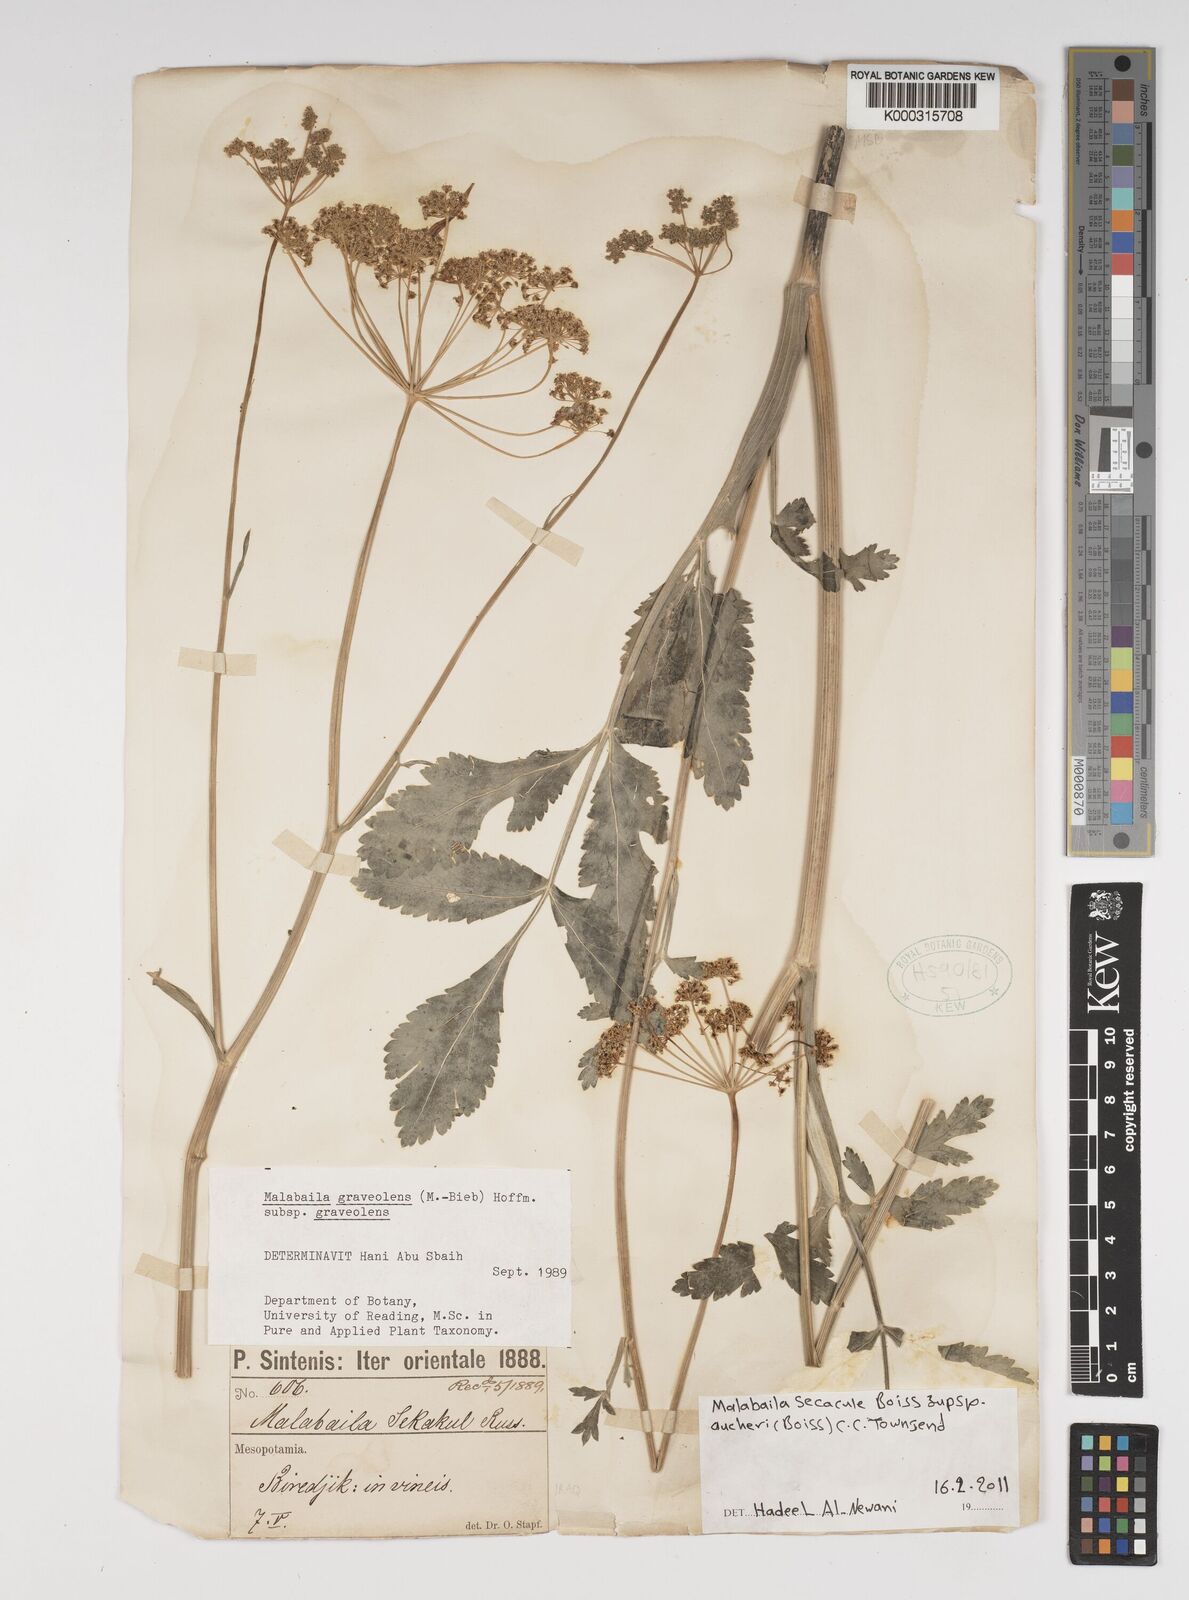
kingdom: Plantae
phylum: Tracheophyta
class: Magnoliopsida
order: Apiales
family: Apiaceae
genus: Pastinaca
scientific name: Pastinaca clausii
